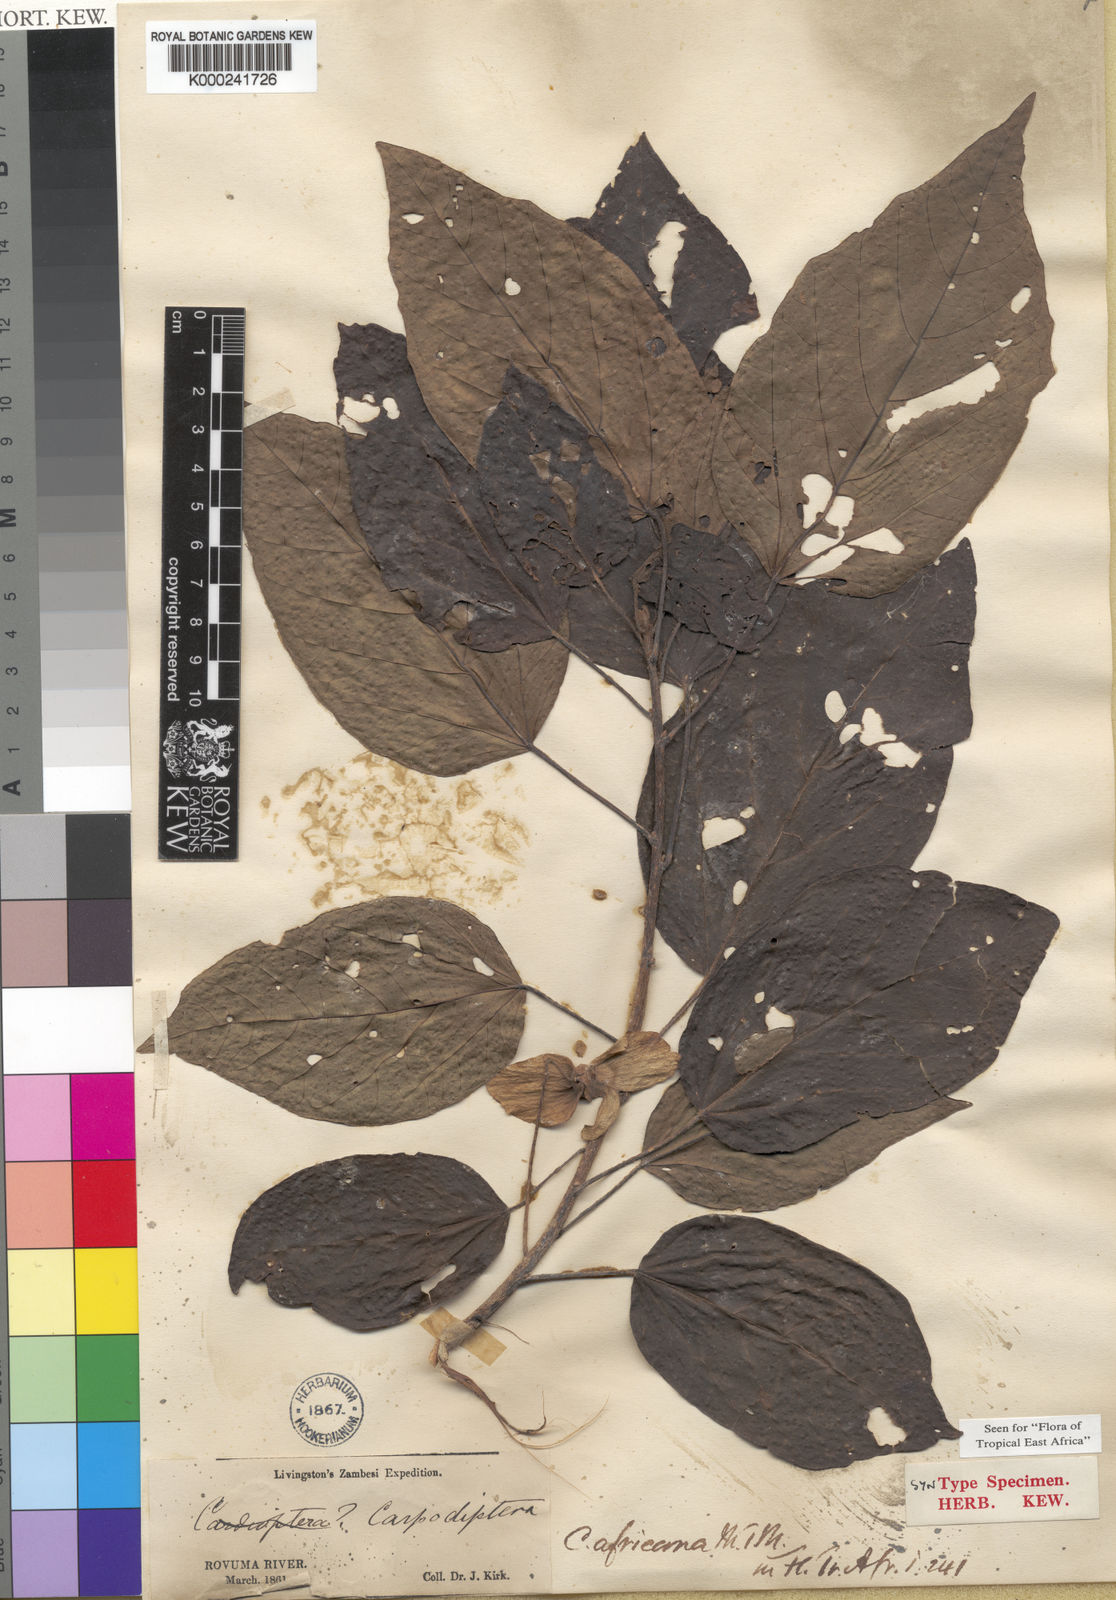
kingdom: Plantae
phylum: Tracheophyta
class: Magnoliopsida
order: Malvales
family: Malvaceae
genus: Carpodiptera
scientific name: Carpodiptera
